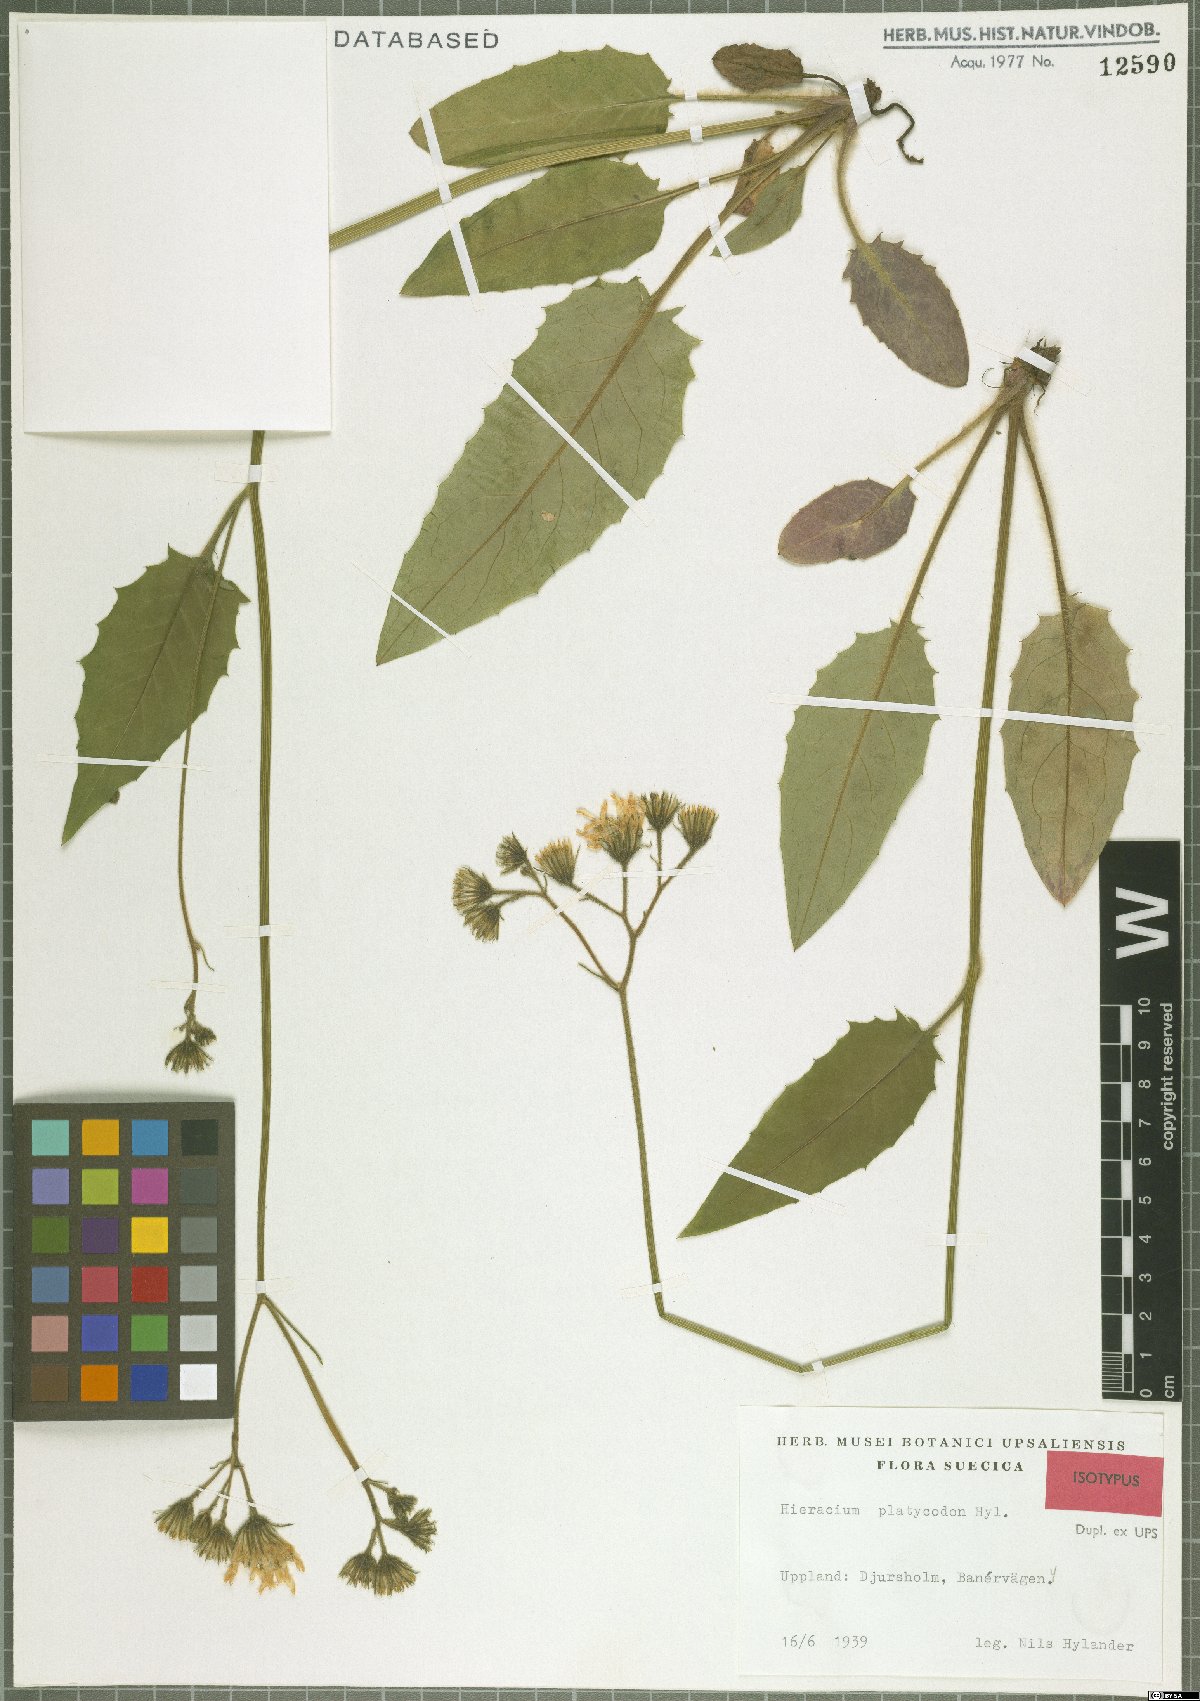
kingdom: Plantae
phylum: Tracheophyta
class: Magnoliopsida
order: Asterales
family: Asteraceae
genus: Hieracium
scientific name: Hieracium otophorum
